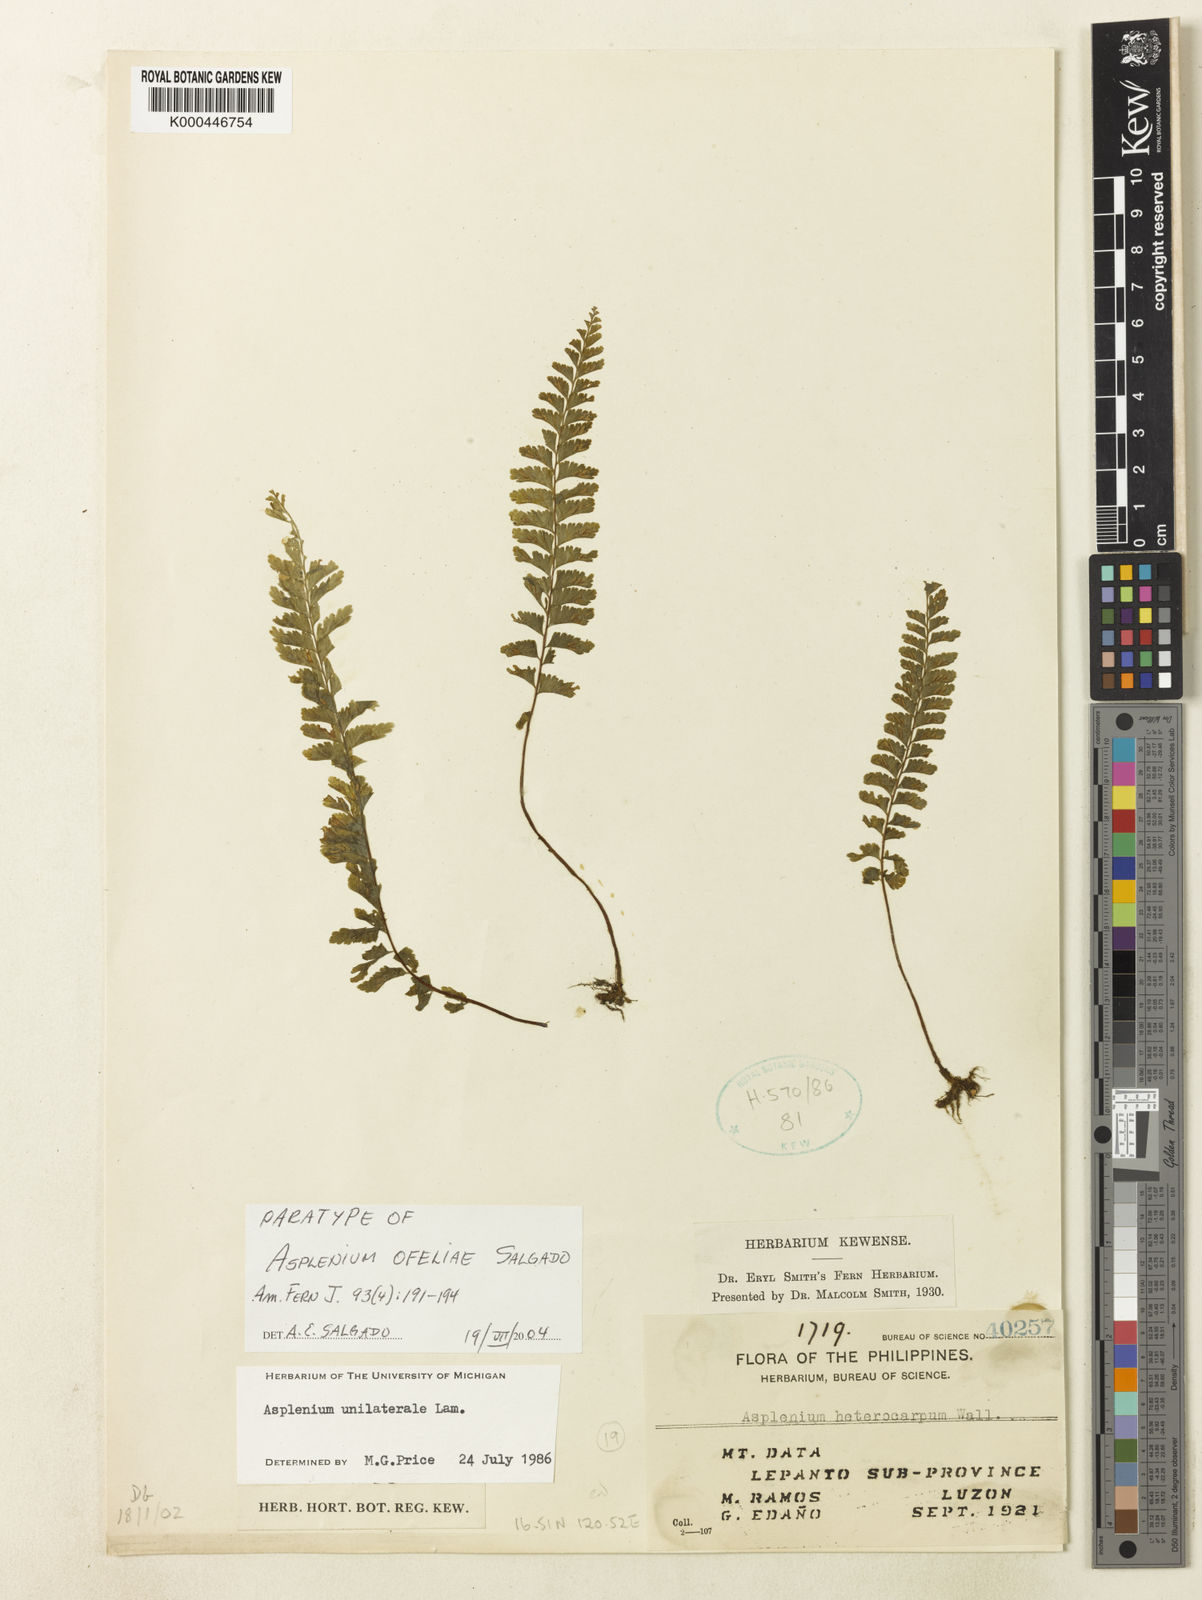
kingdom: Plantae
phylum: Tracheophyta
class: Polypodiopsida
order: Polypodiales
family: Aspleniaceae
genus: Asplenium
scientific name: Asplenium
